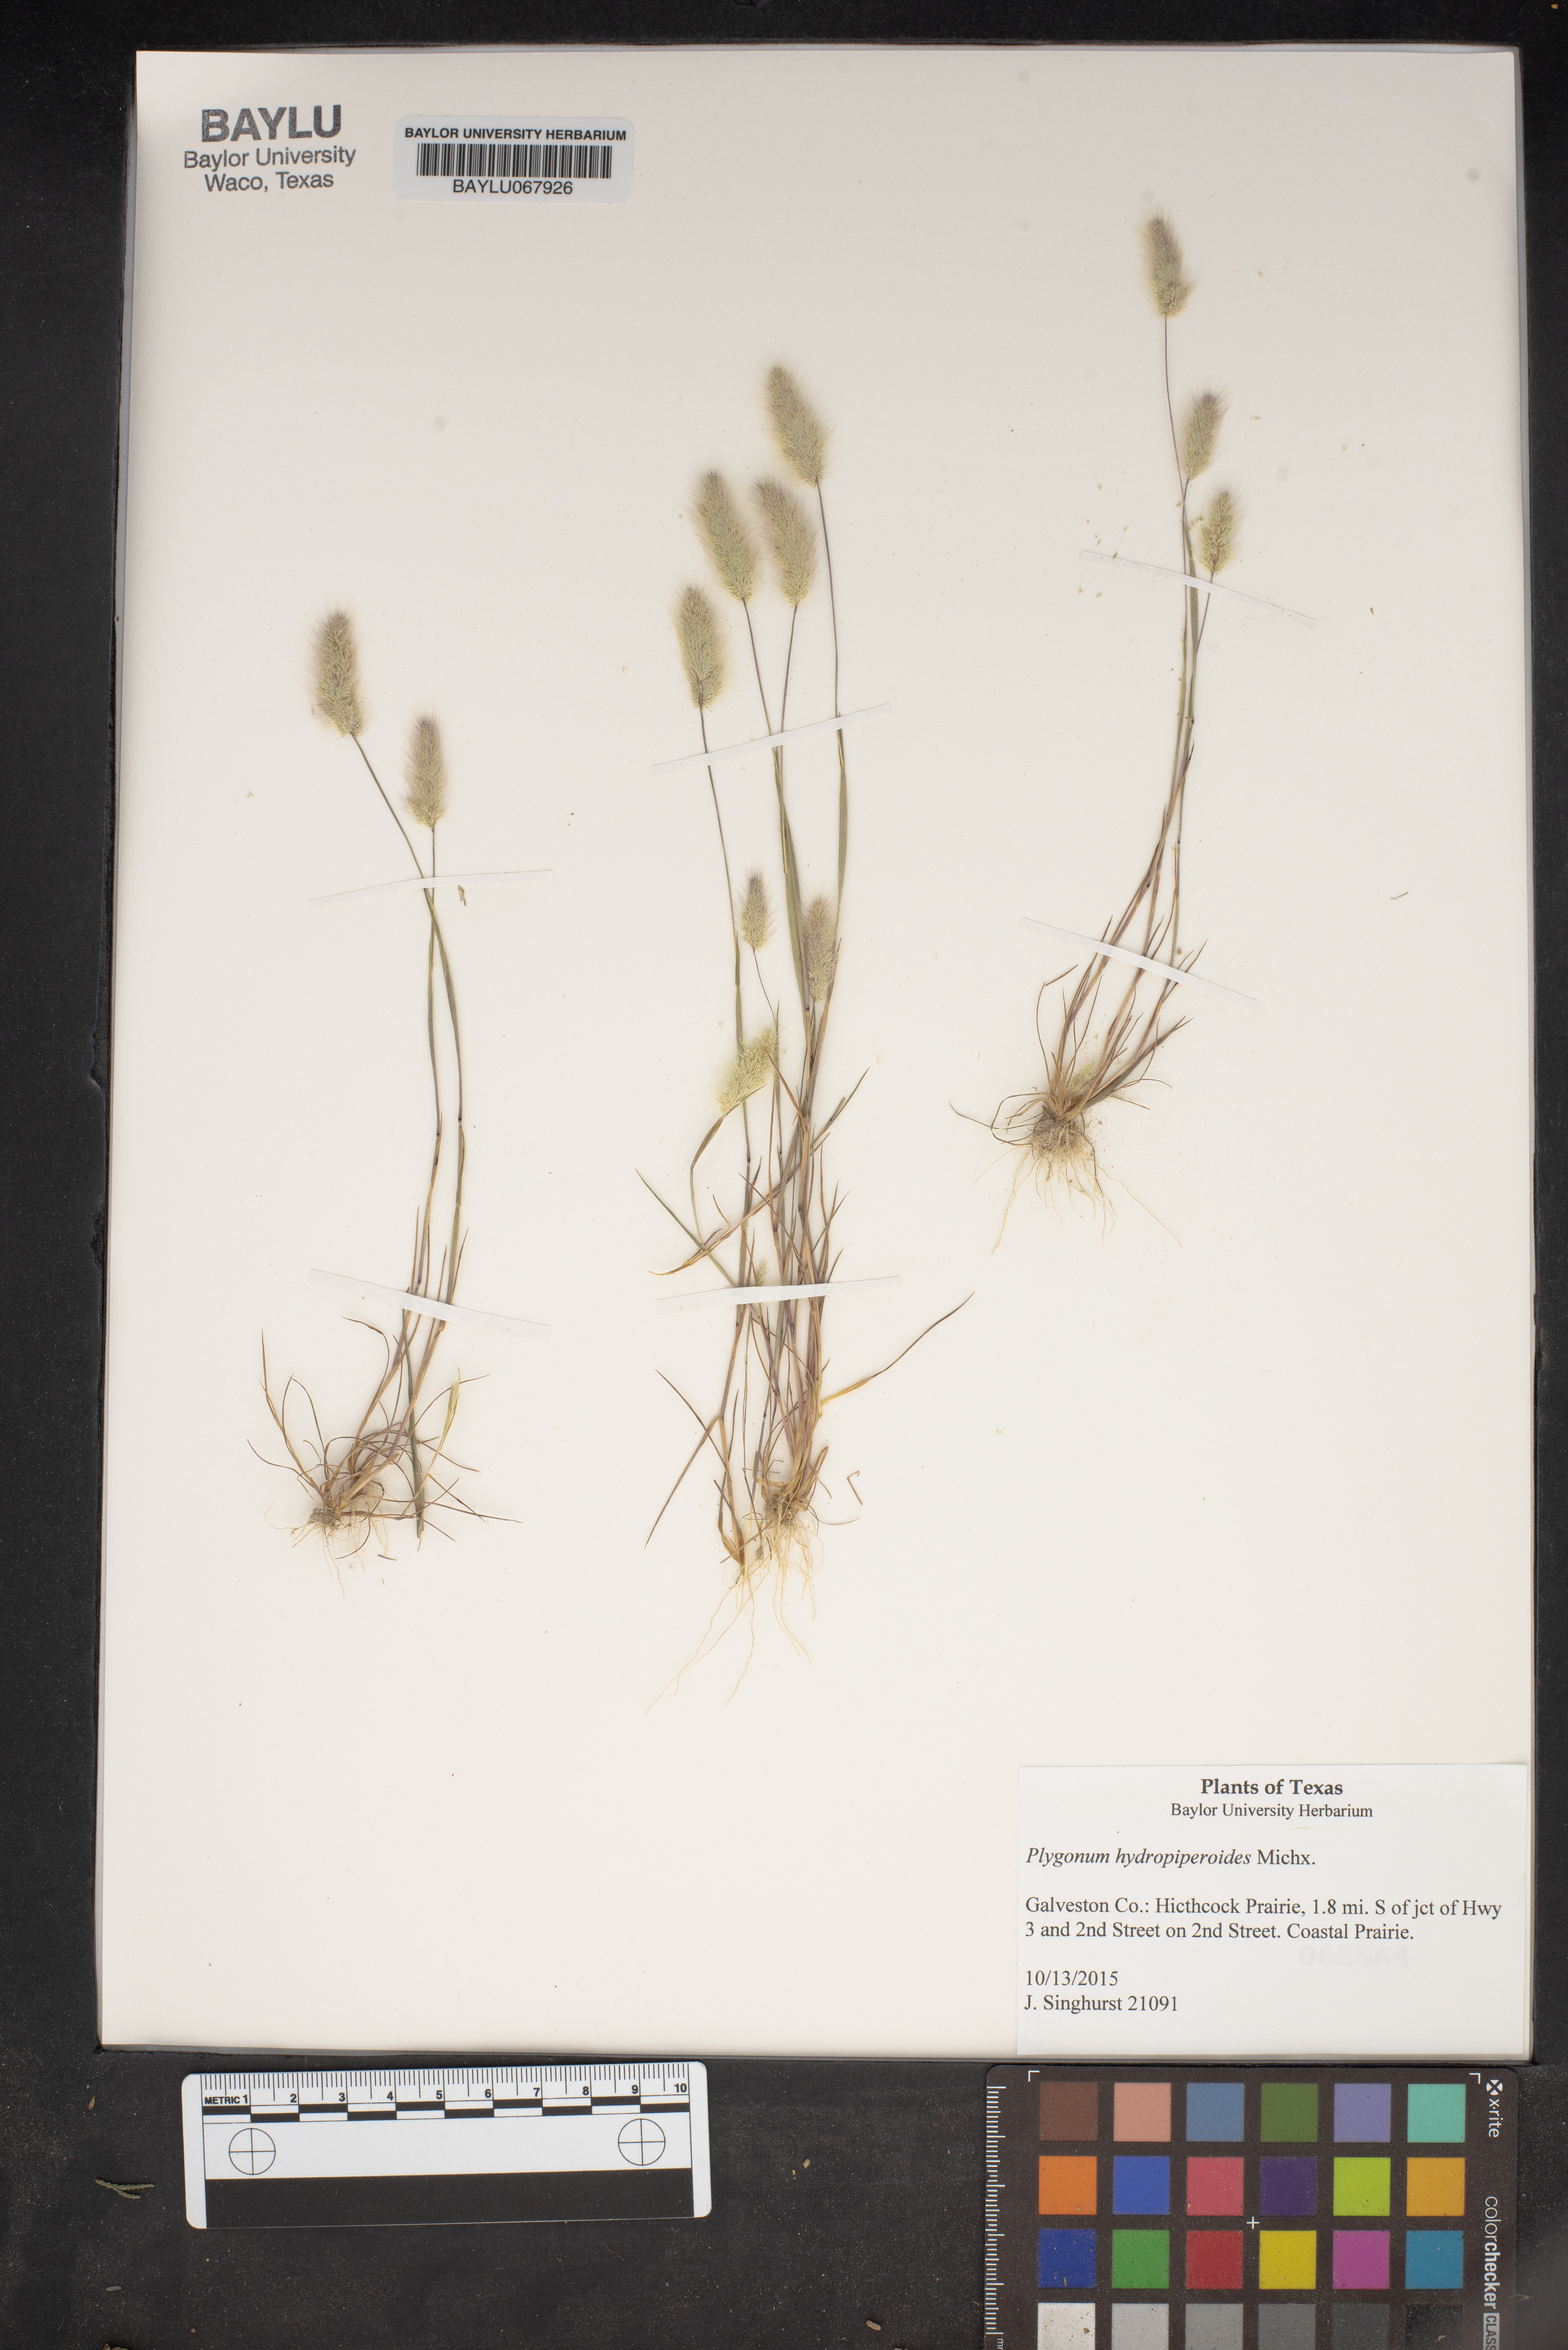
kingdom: Plantae
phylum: Tracheophyta
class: Magnoliopsida
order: Caryophyllales
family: Polygonaceae
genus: Persicaria
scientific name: Persicaria hydropiperoides
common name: Swamp smartweed
